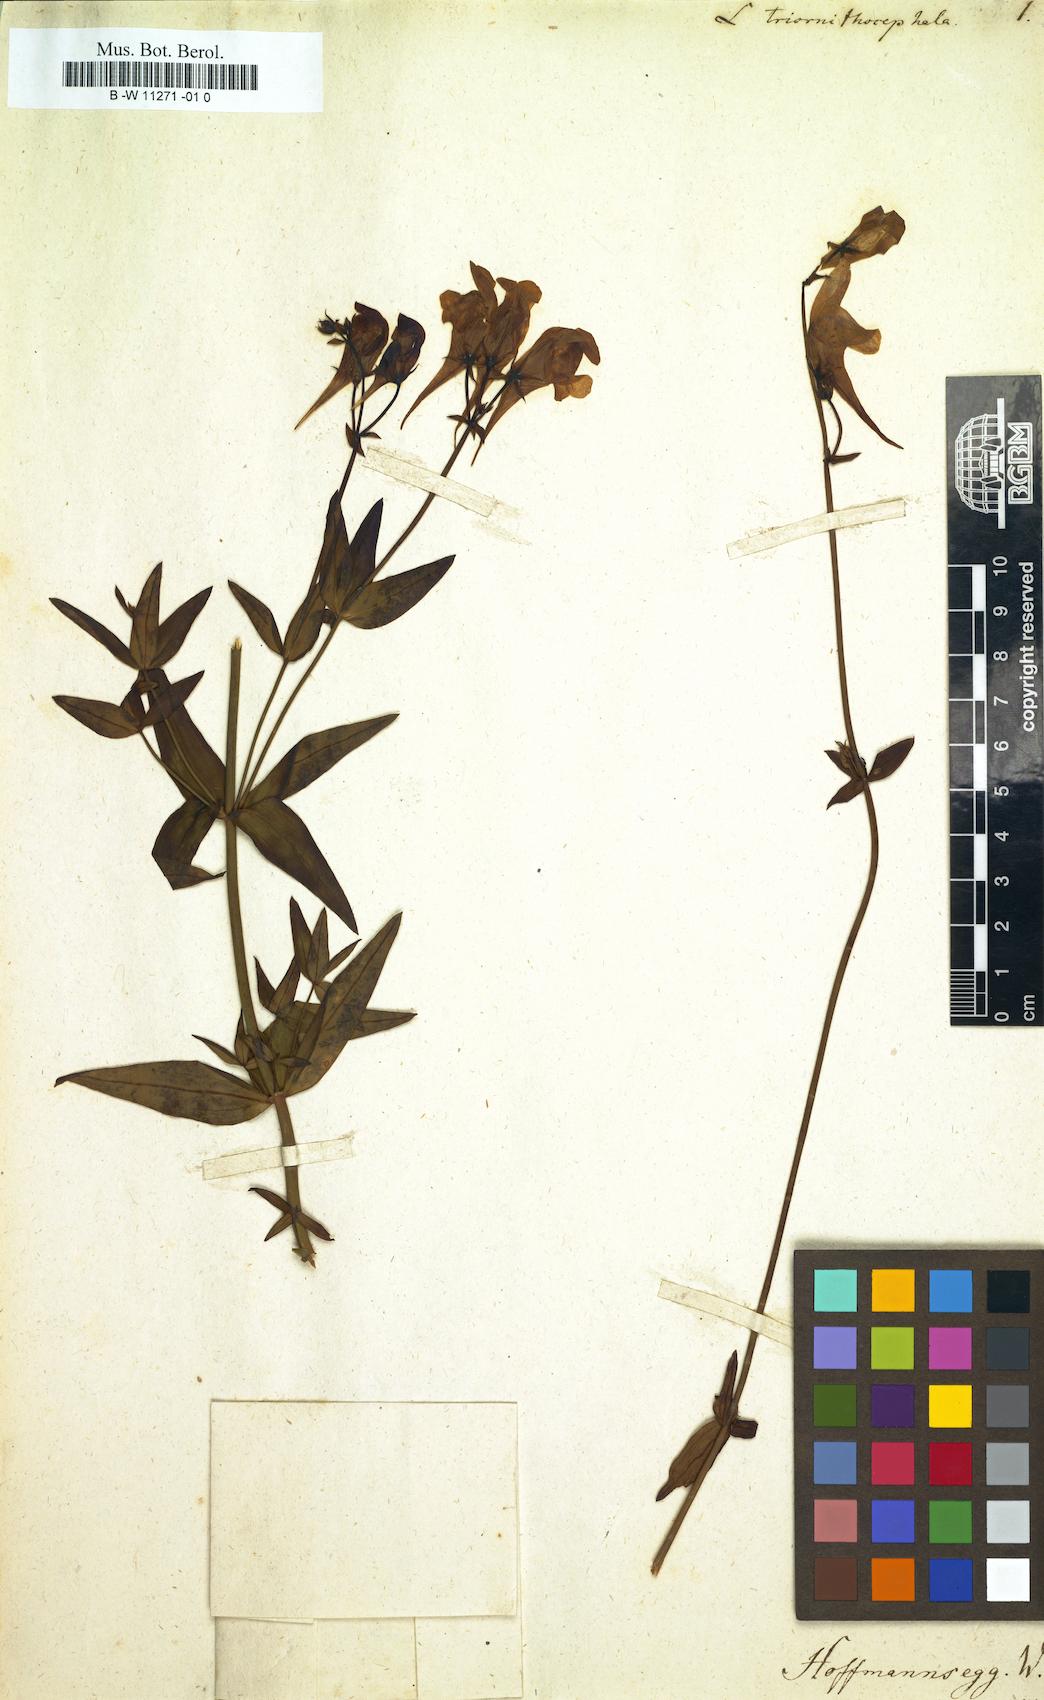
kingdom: Plantae
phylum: Tracheophyta
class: Magnoliopsida
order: Lamiales
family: Plantaginaceae
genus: Linaria
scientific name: Linaria
